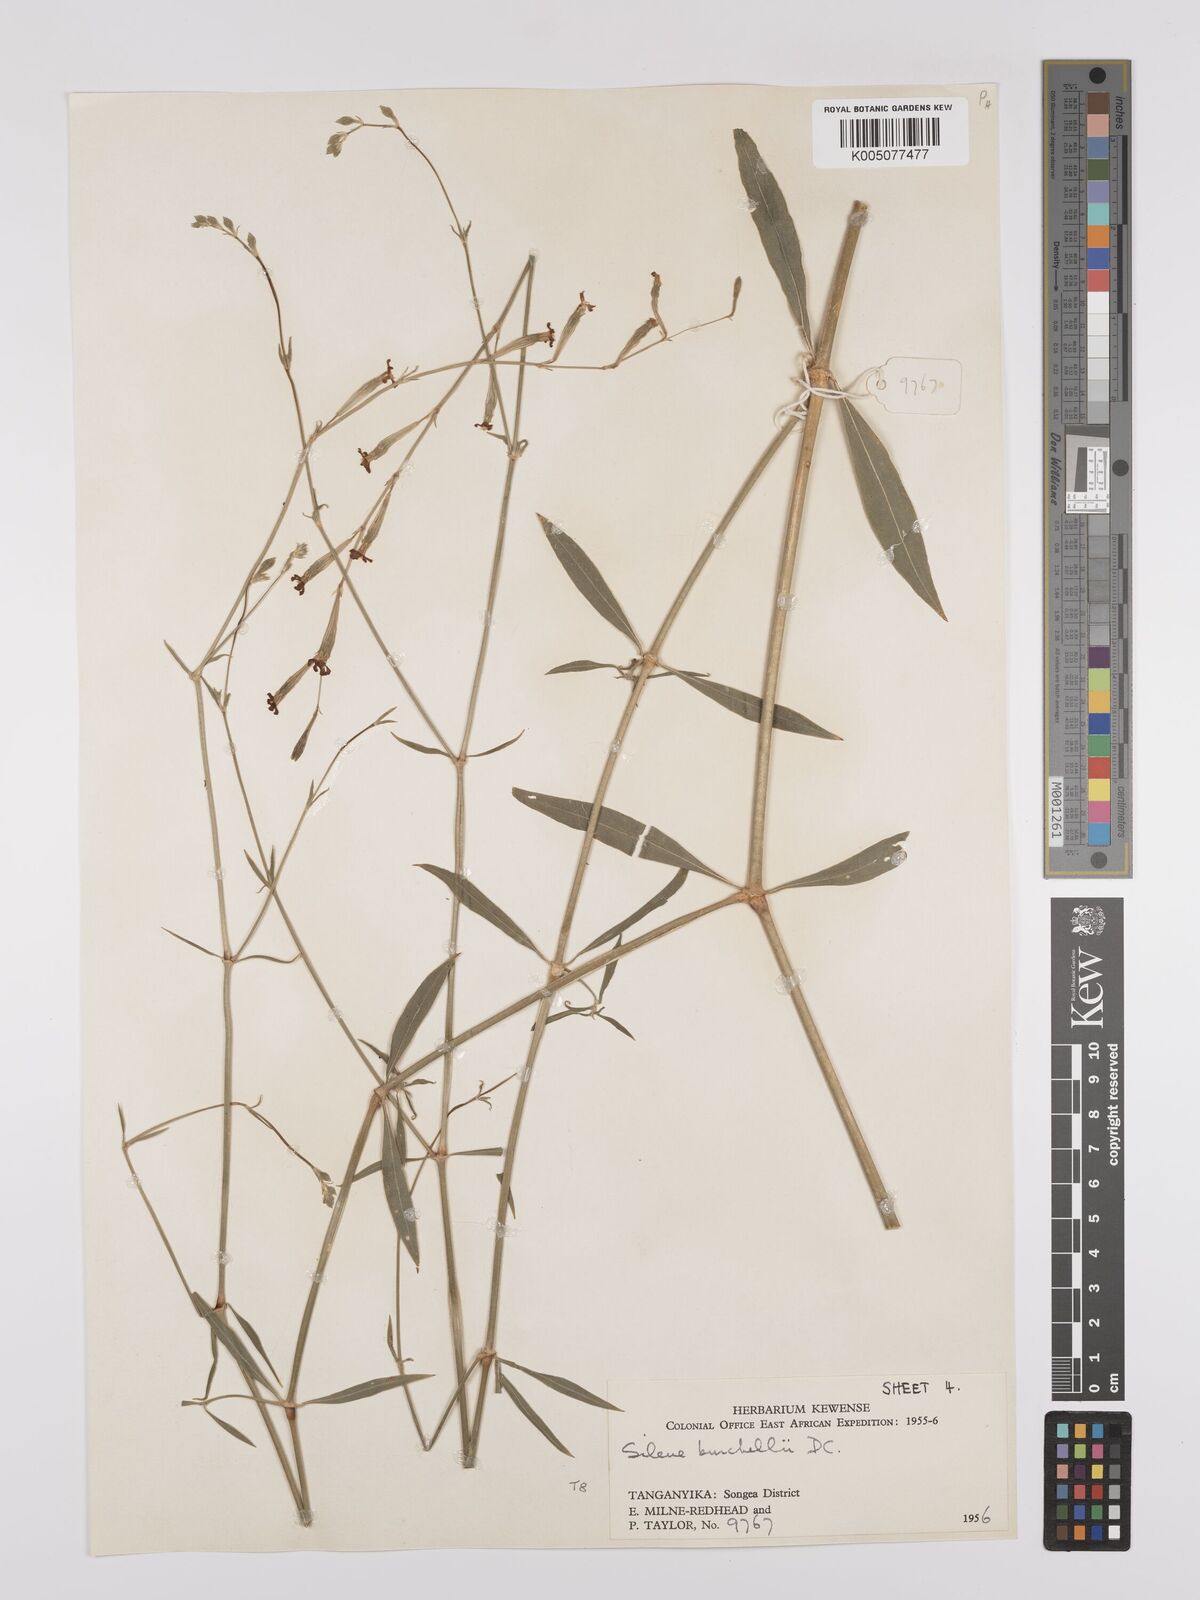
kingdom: Plantae
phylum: Tracheophyta
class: Magnoliopsida
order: Caryophyllales
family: Caryophyllaceae
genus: Silene
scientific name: Silene burchellii
